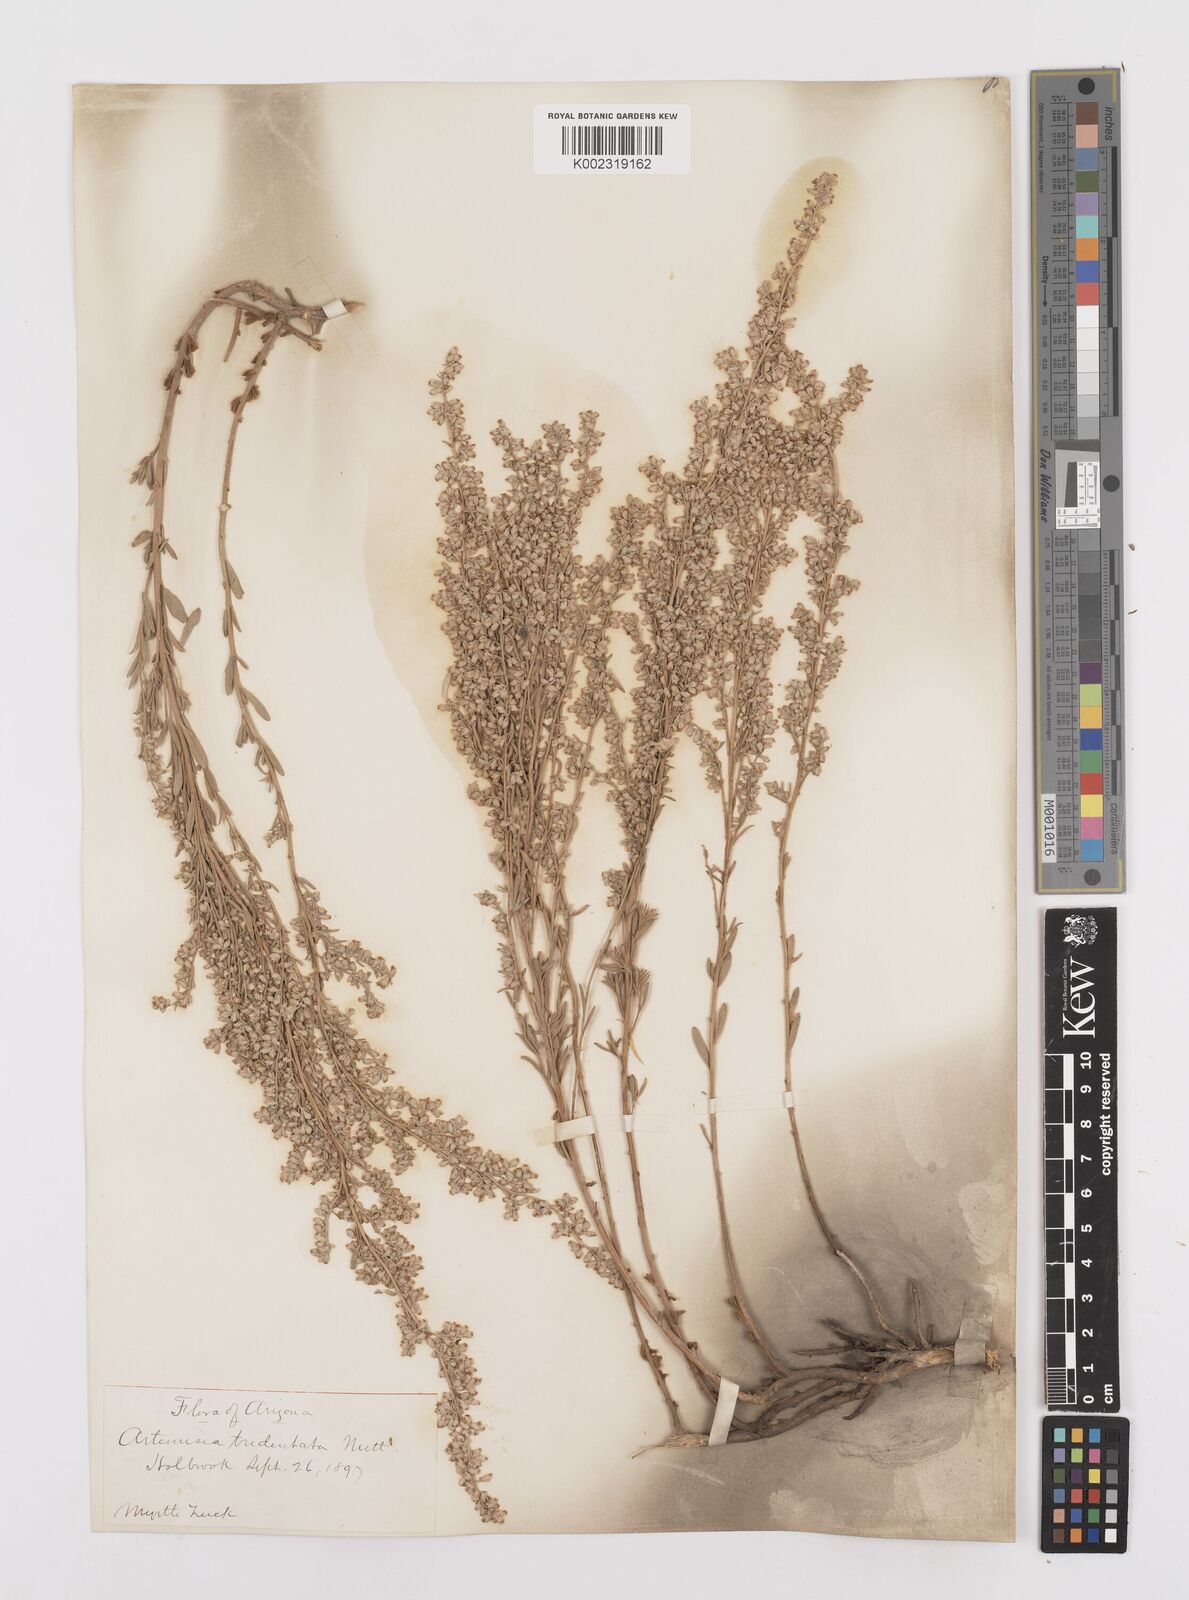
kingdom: Plantae
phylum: Tracheophyta
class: Magnoliopsida
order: Asterales
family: Asteraceae
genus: Artemisia
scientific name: Artemisia tridentata
